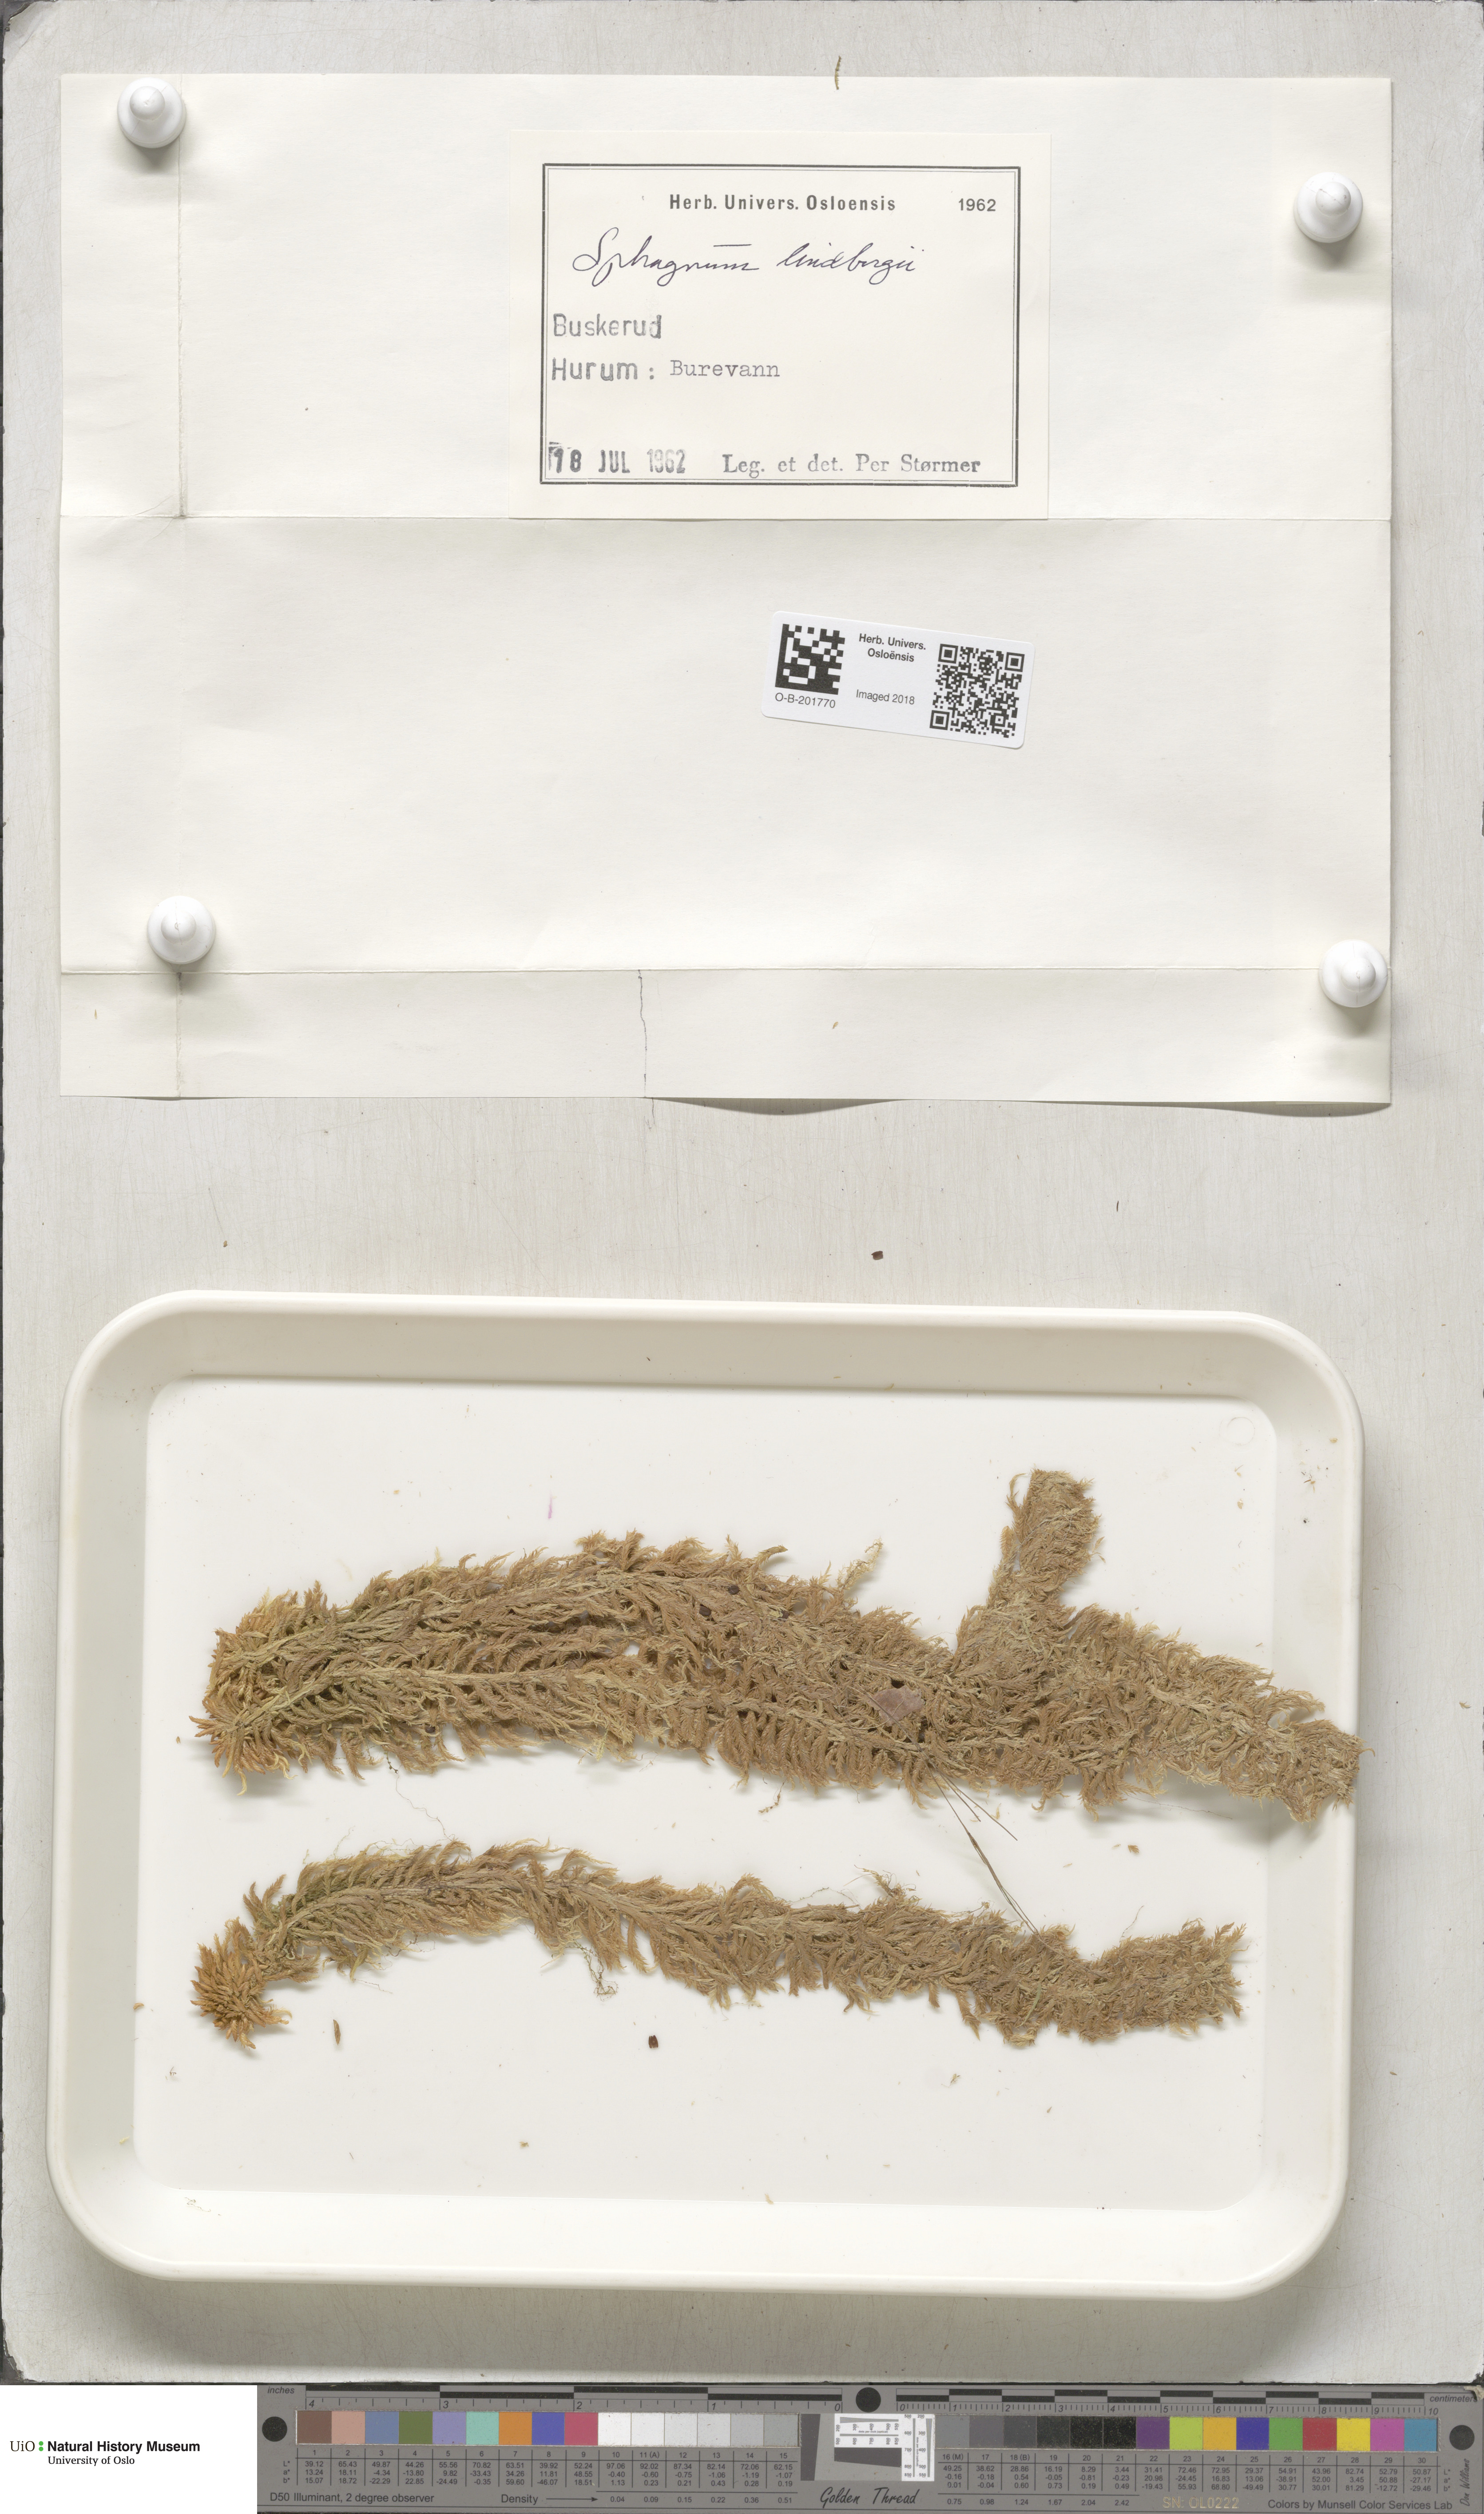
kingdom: Plantae
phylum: Bryophyta
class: Sphagnopsida
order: Sphagnales
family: Sphagnaceae
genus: Sphagnum
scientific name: Sphagnum lindbergii
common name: Lindberg's peat moss
